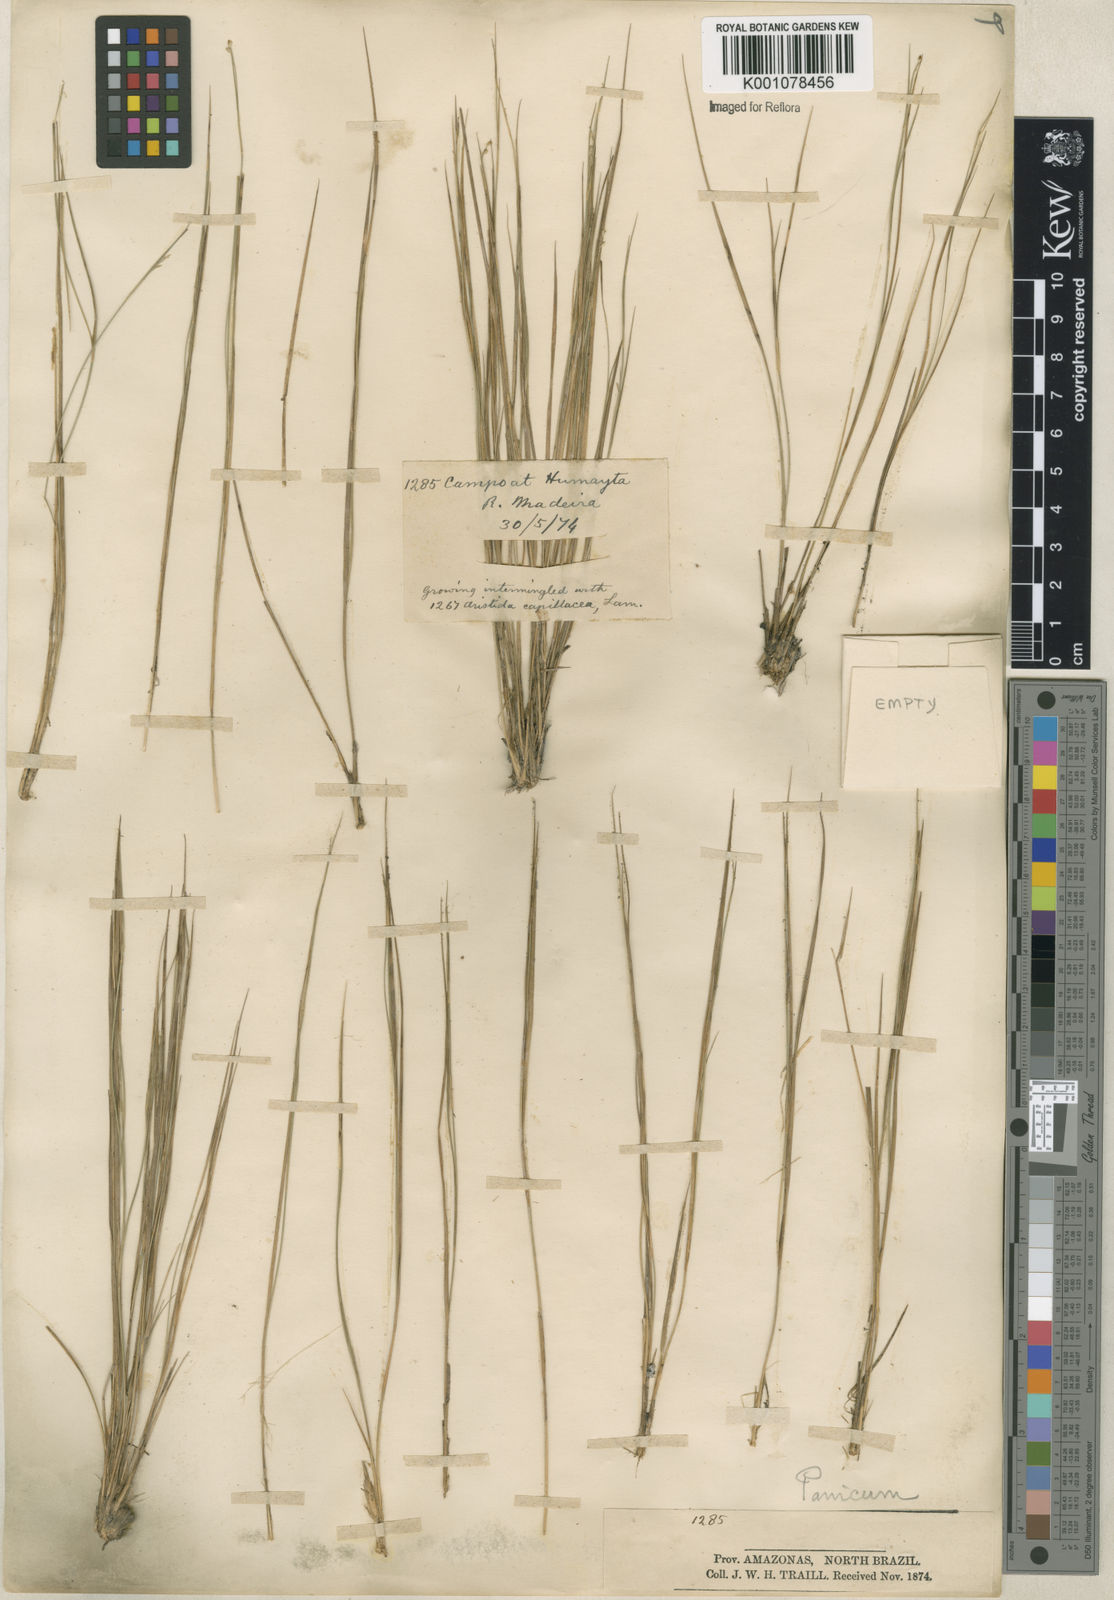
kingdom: Plantae
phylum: Tracheophyta
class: Liliopsida
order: Poales
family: Poaceae
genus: Coleataenia
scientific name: Coleataenia stenodes
